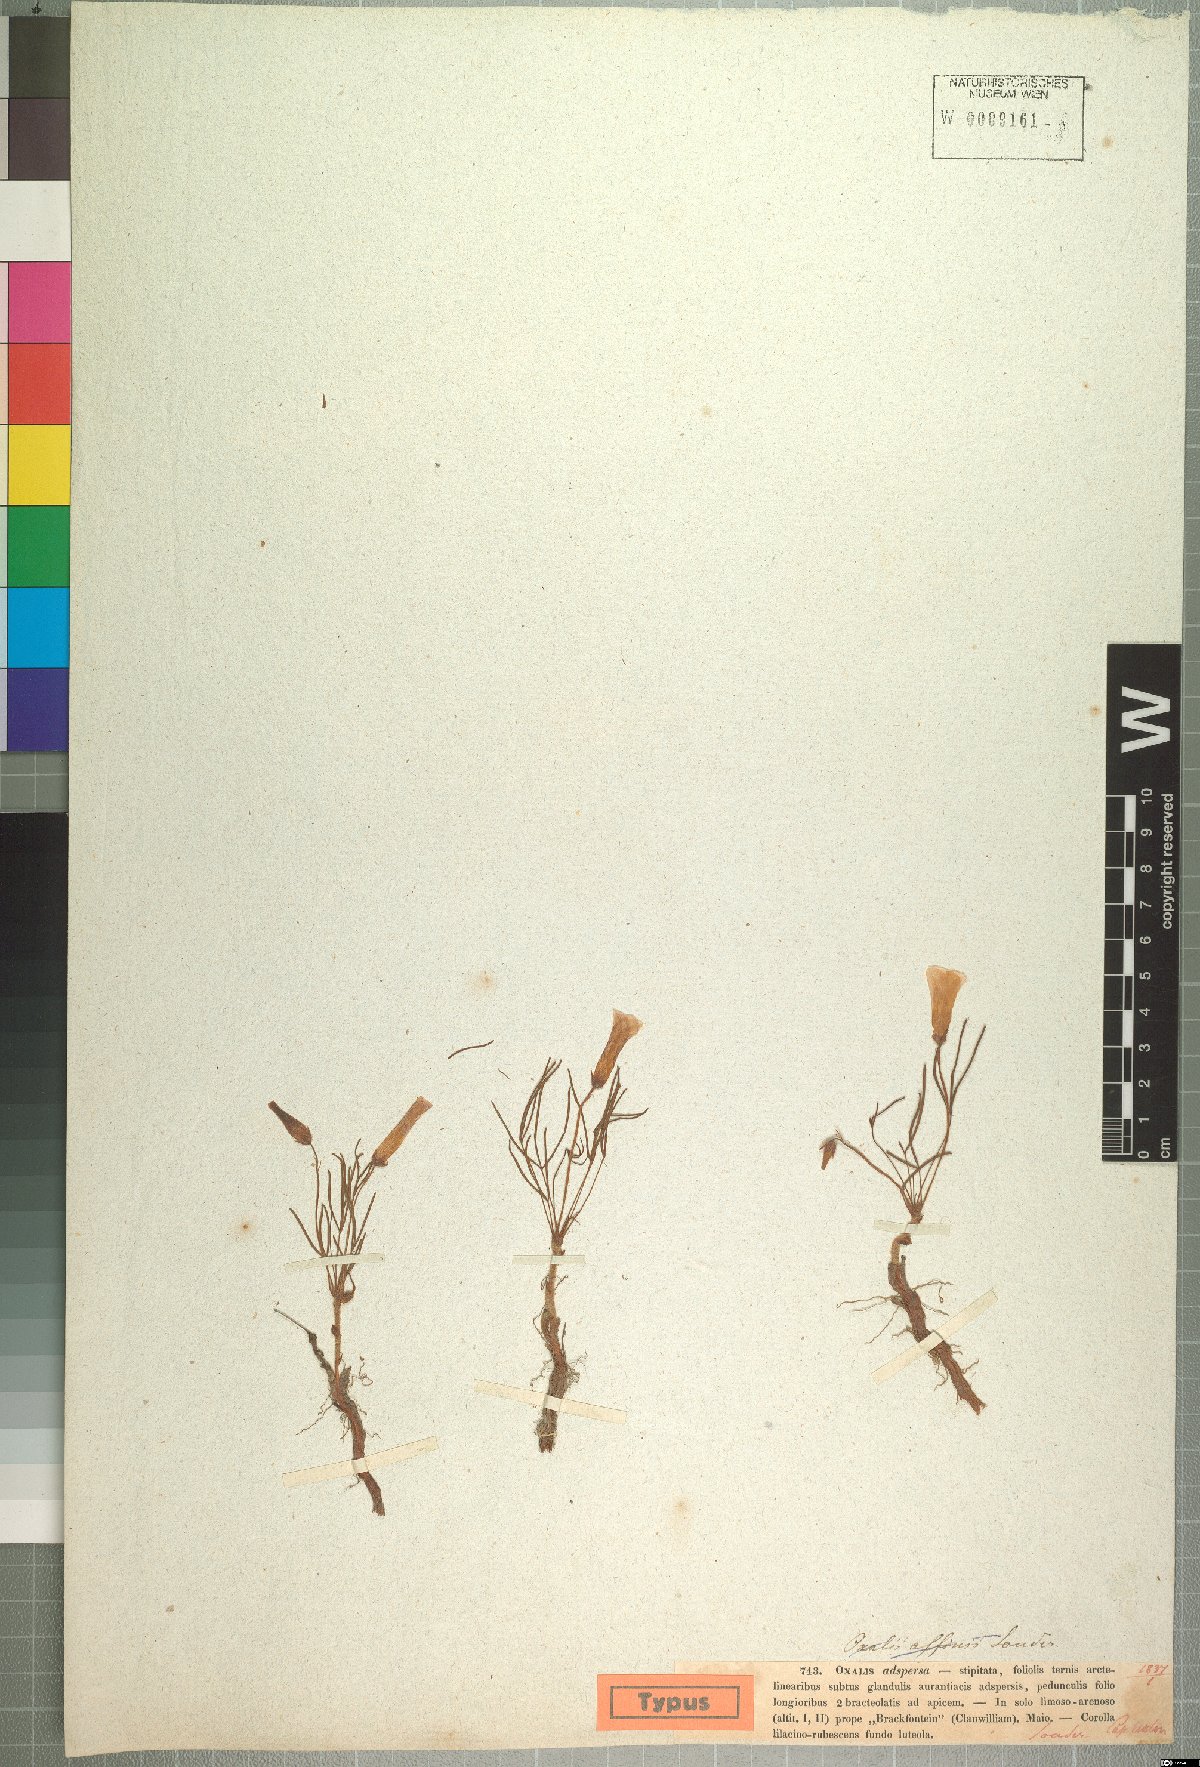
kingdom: Plantae
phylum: Tracheophyta
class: Magnoliopsida
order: Oxalidales
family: Oxalidaceae
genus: Oxalis
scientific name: Oxalis adspersa
